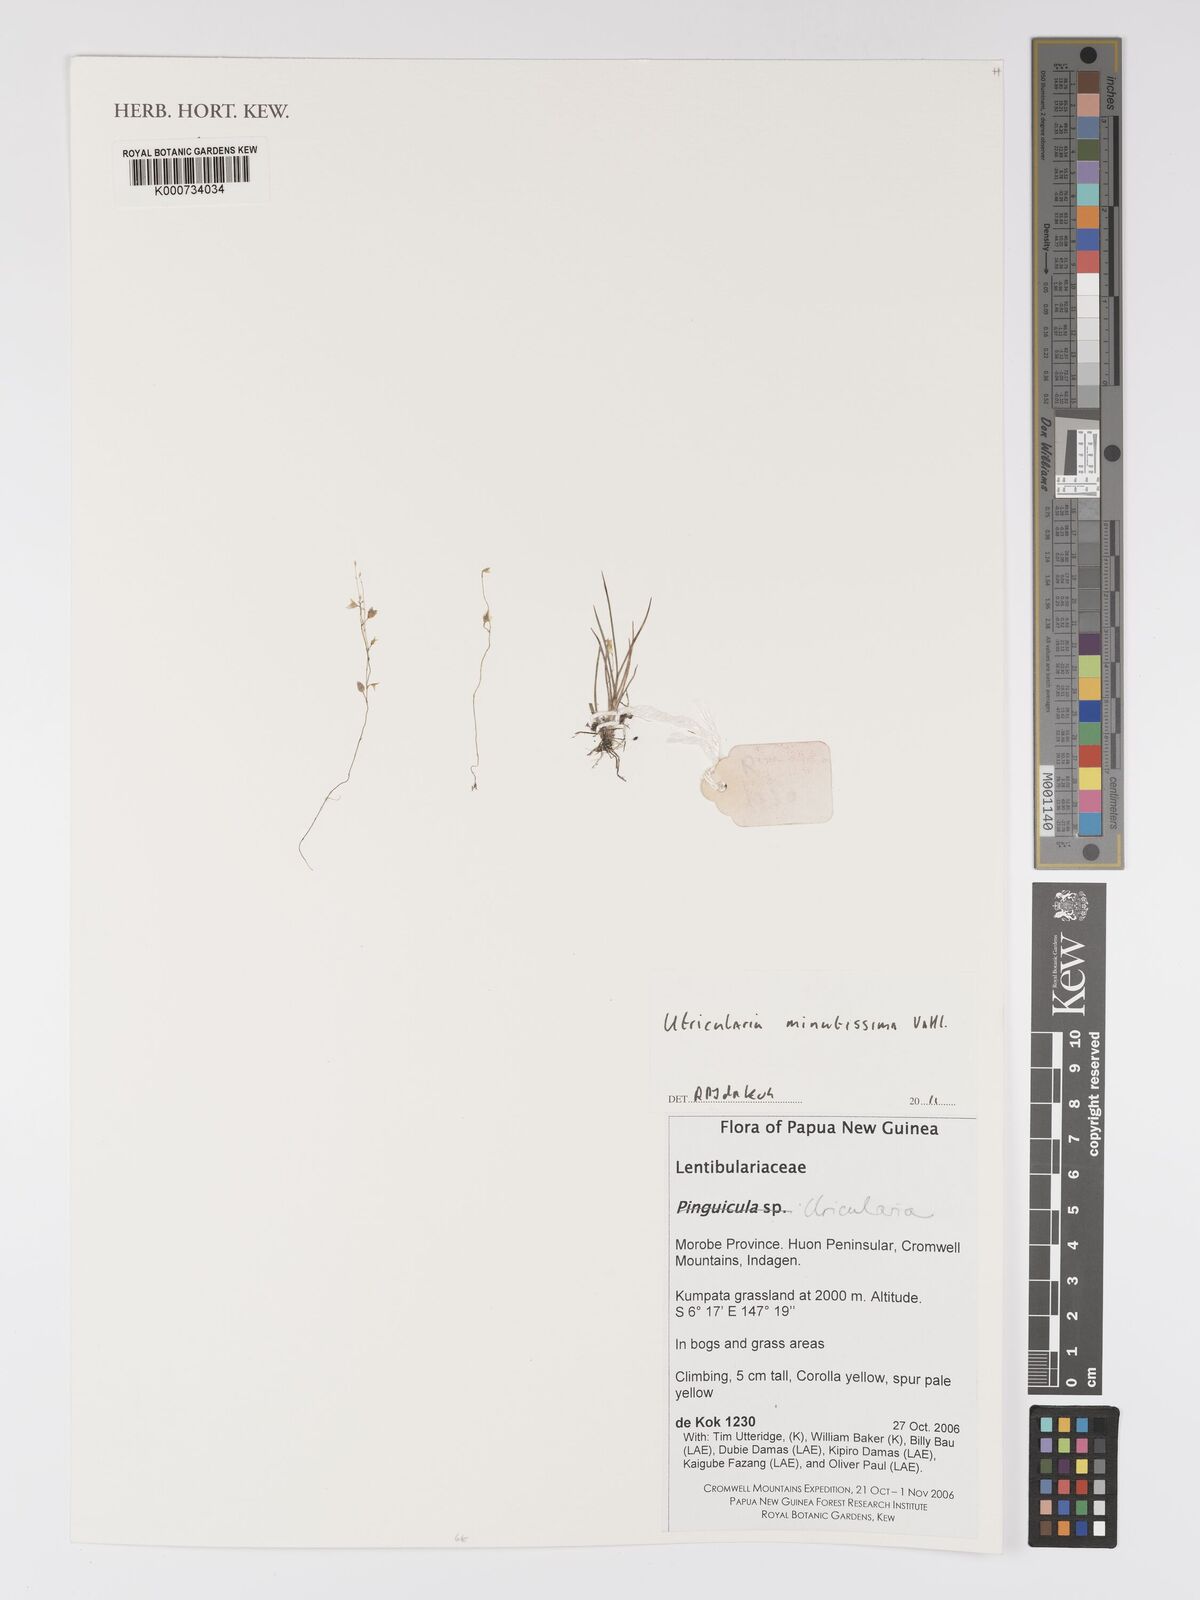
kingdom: Plantae
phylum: Tracheophyta
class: Magnoliopsida
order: Lamiales
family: Lentibulariaceae
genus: Utricularia
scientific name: Utricularia minutissima
